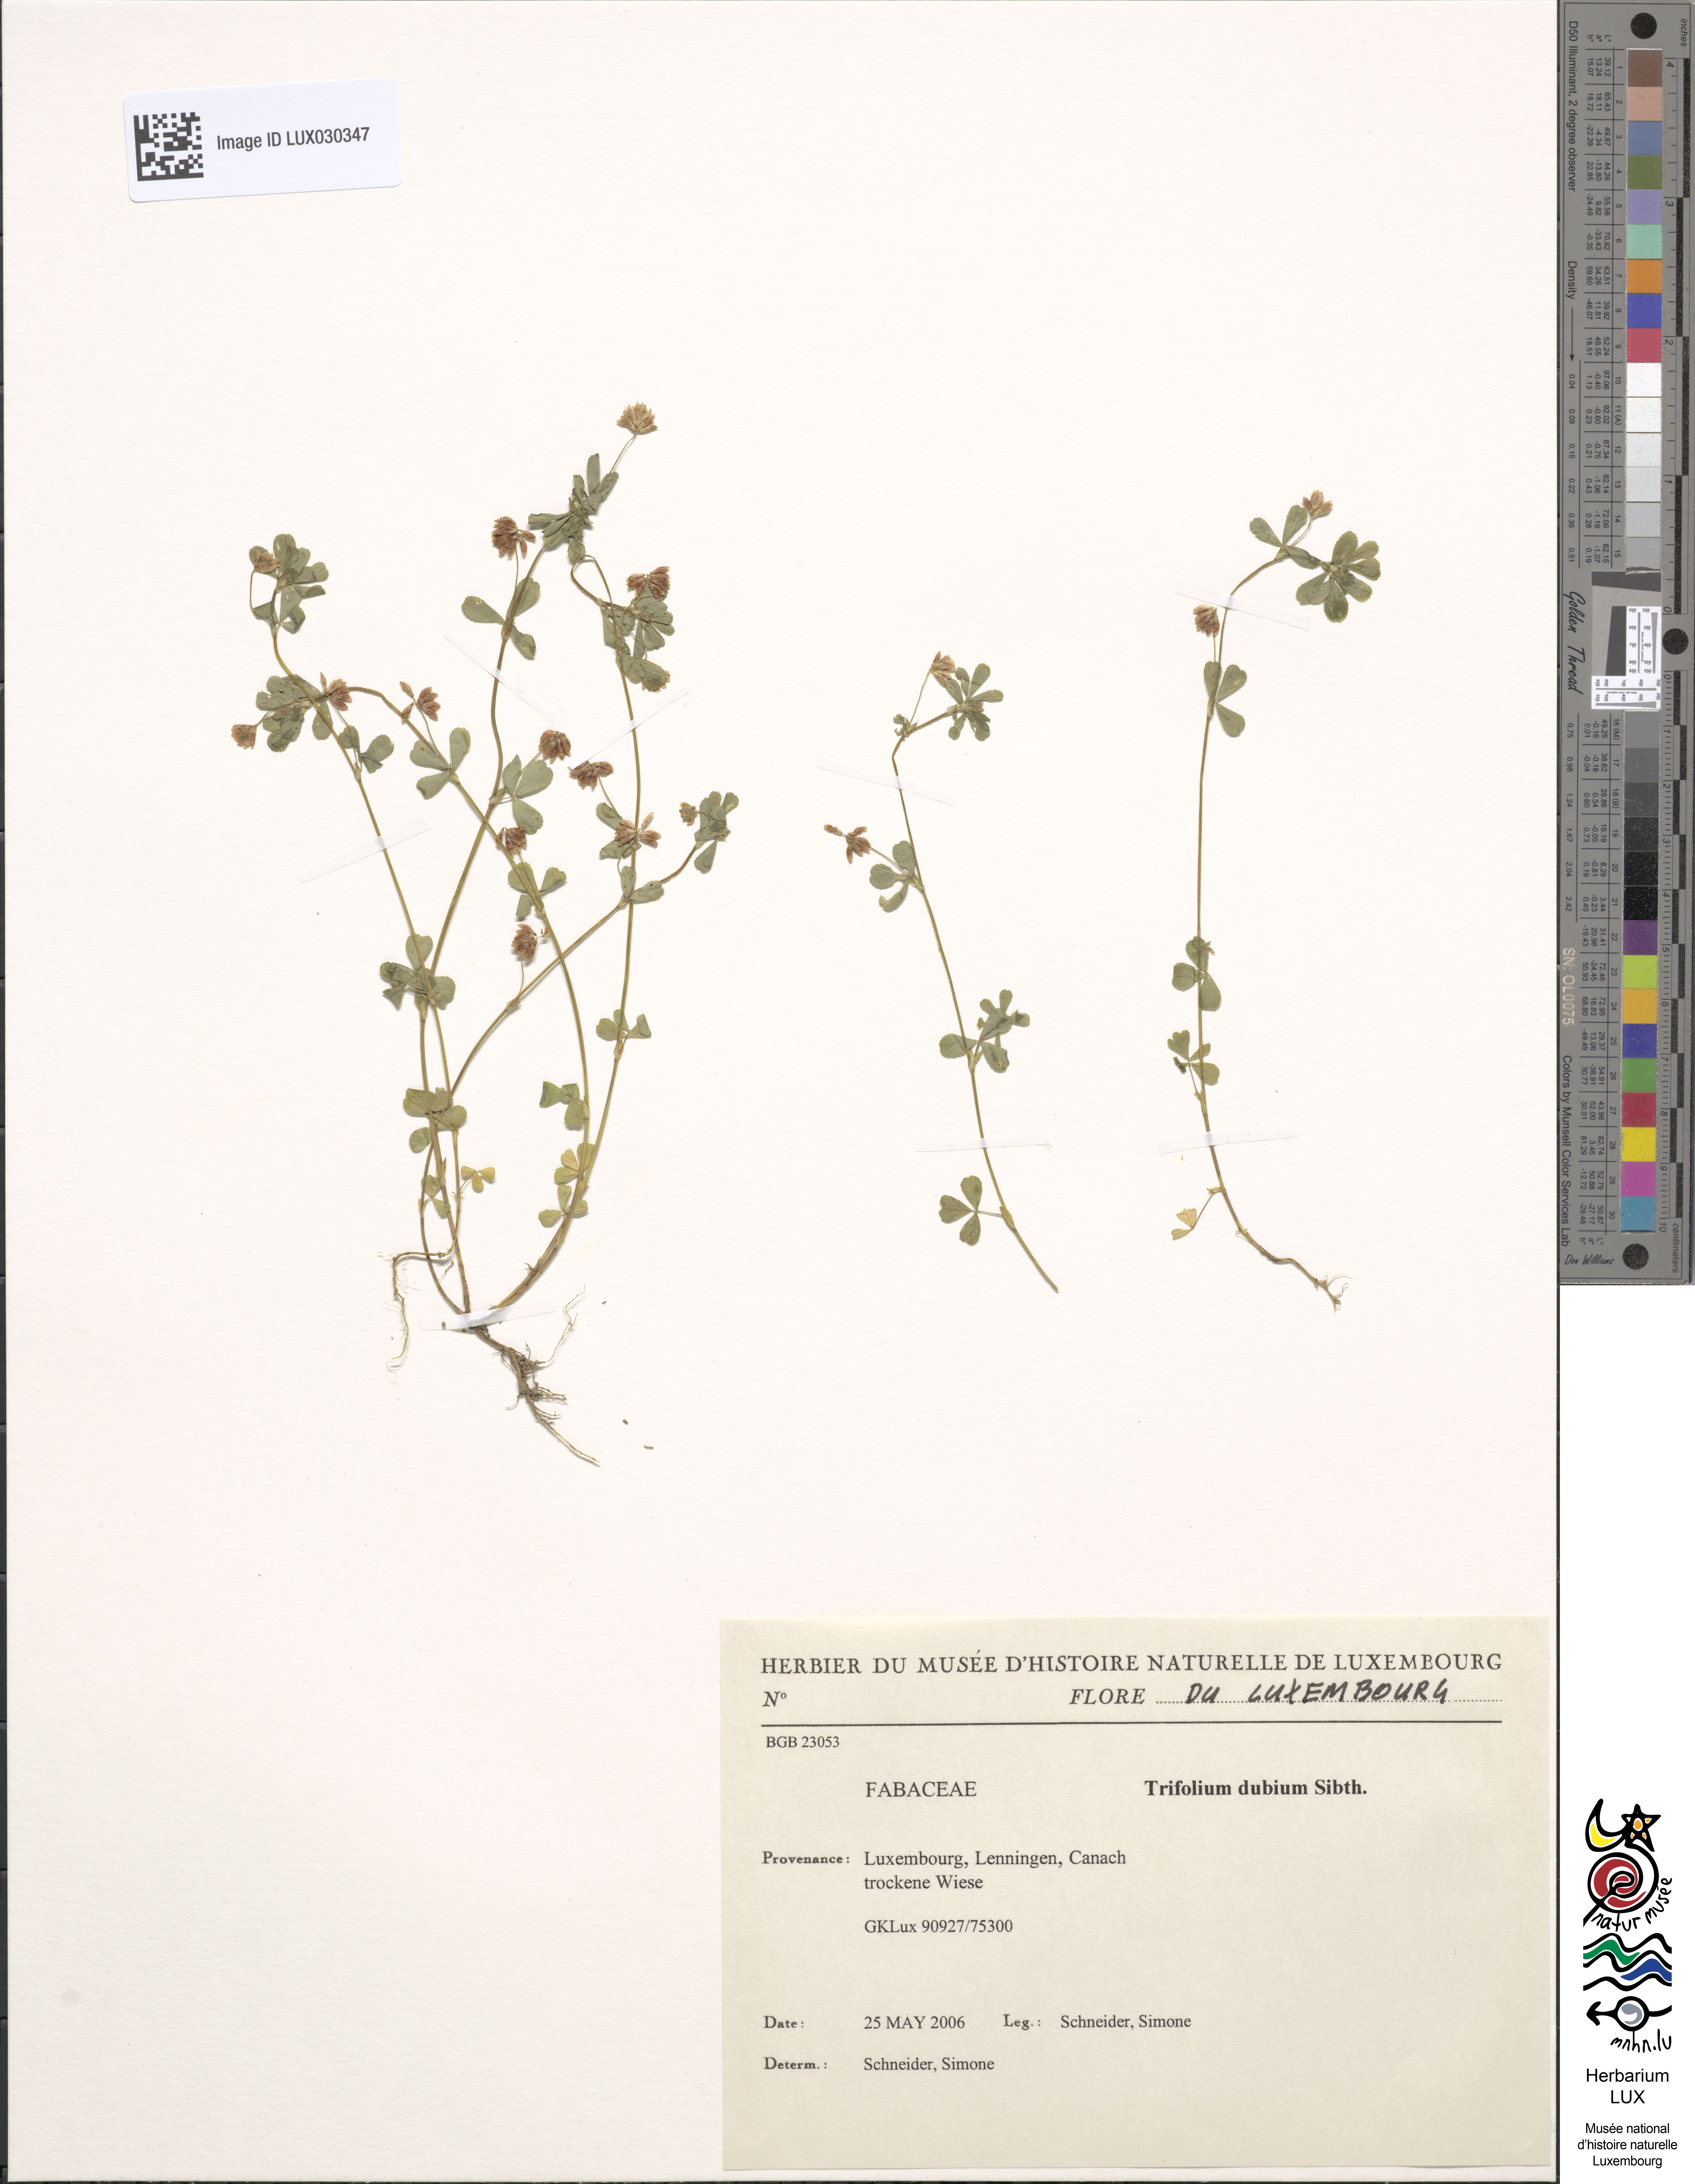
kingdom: Plantae
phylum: Tracheophyta
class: Magnoliopsida
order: Fabales
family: Fabaceae
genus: Trifolium
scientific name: Trifolium dubium
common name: Suckling clover
